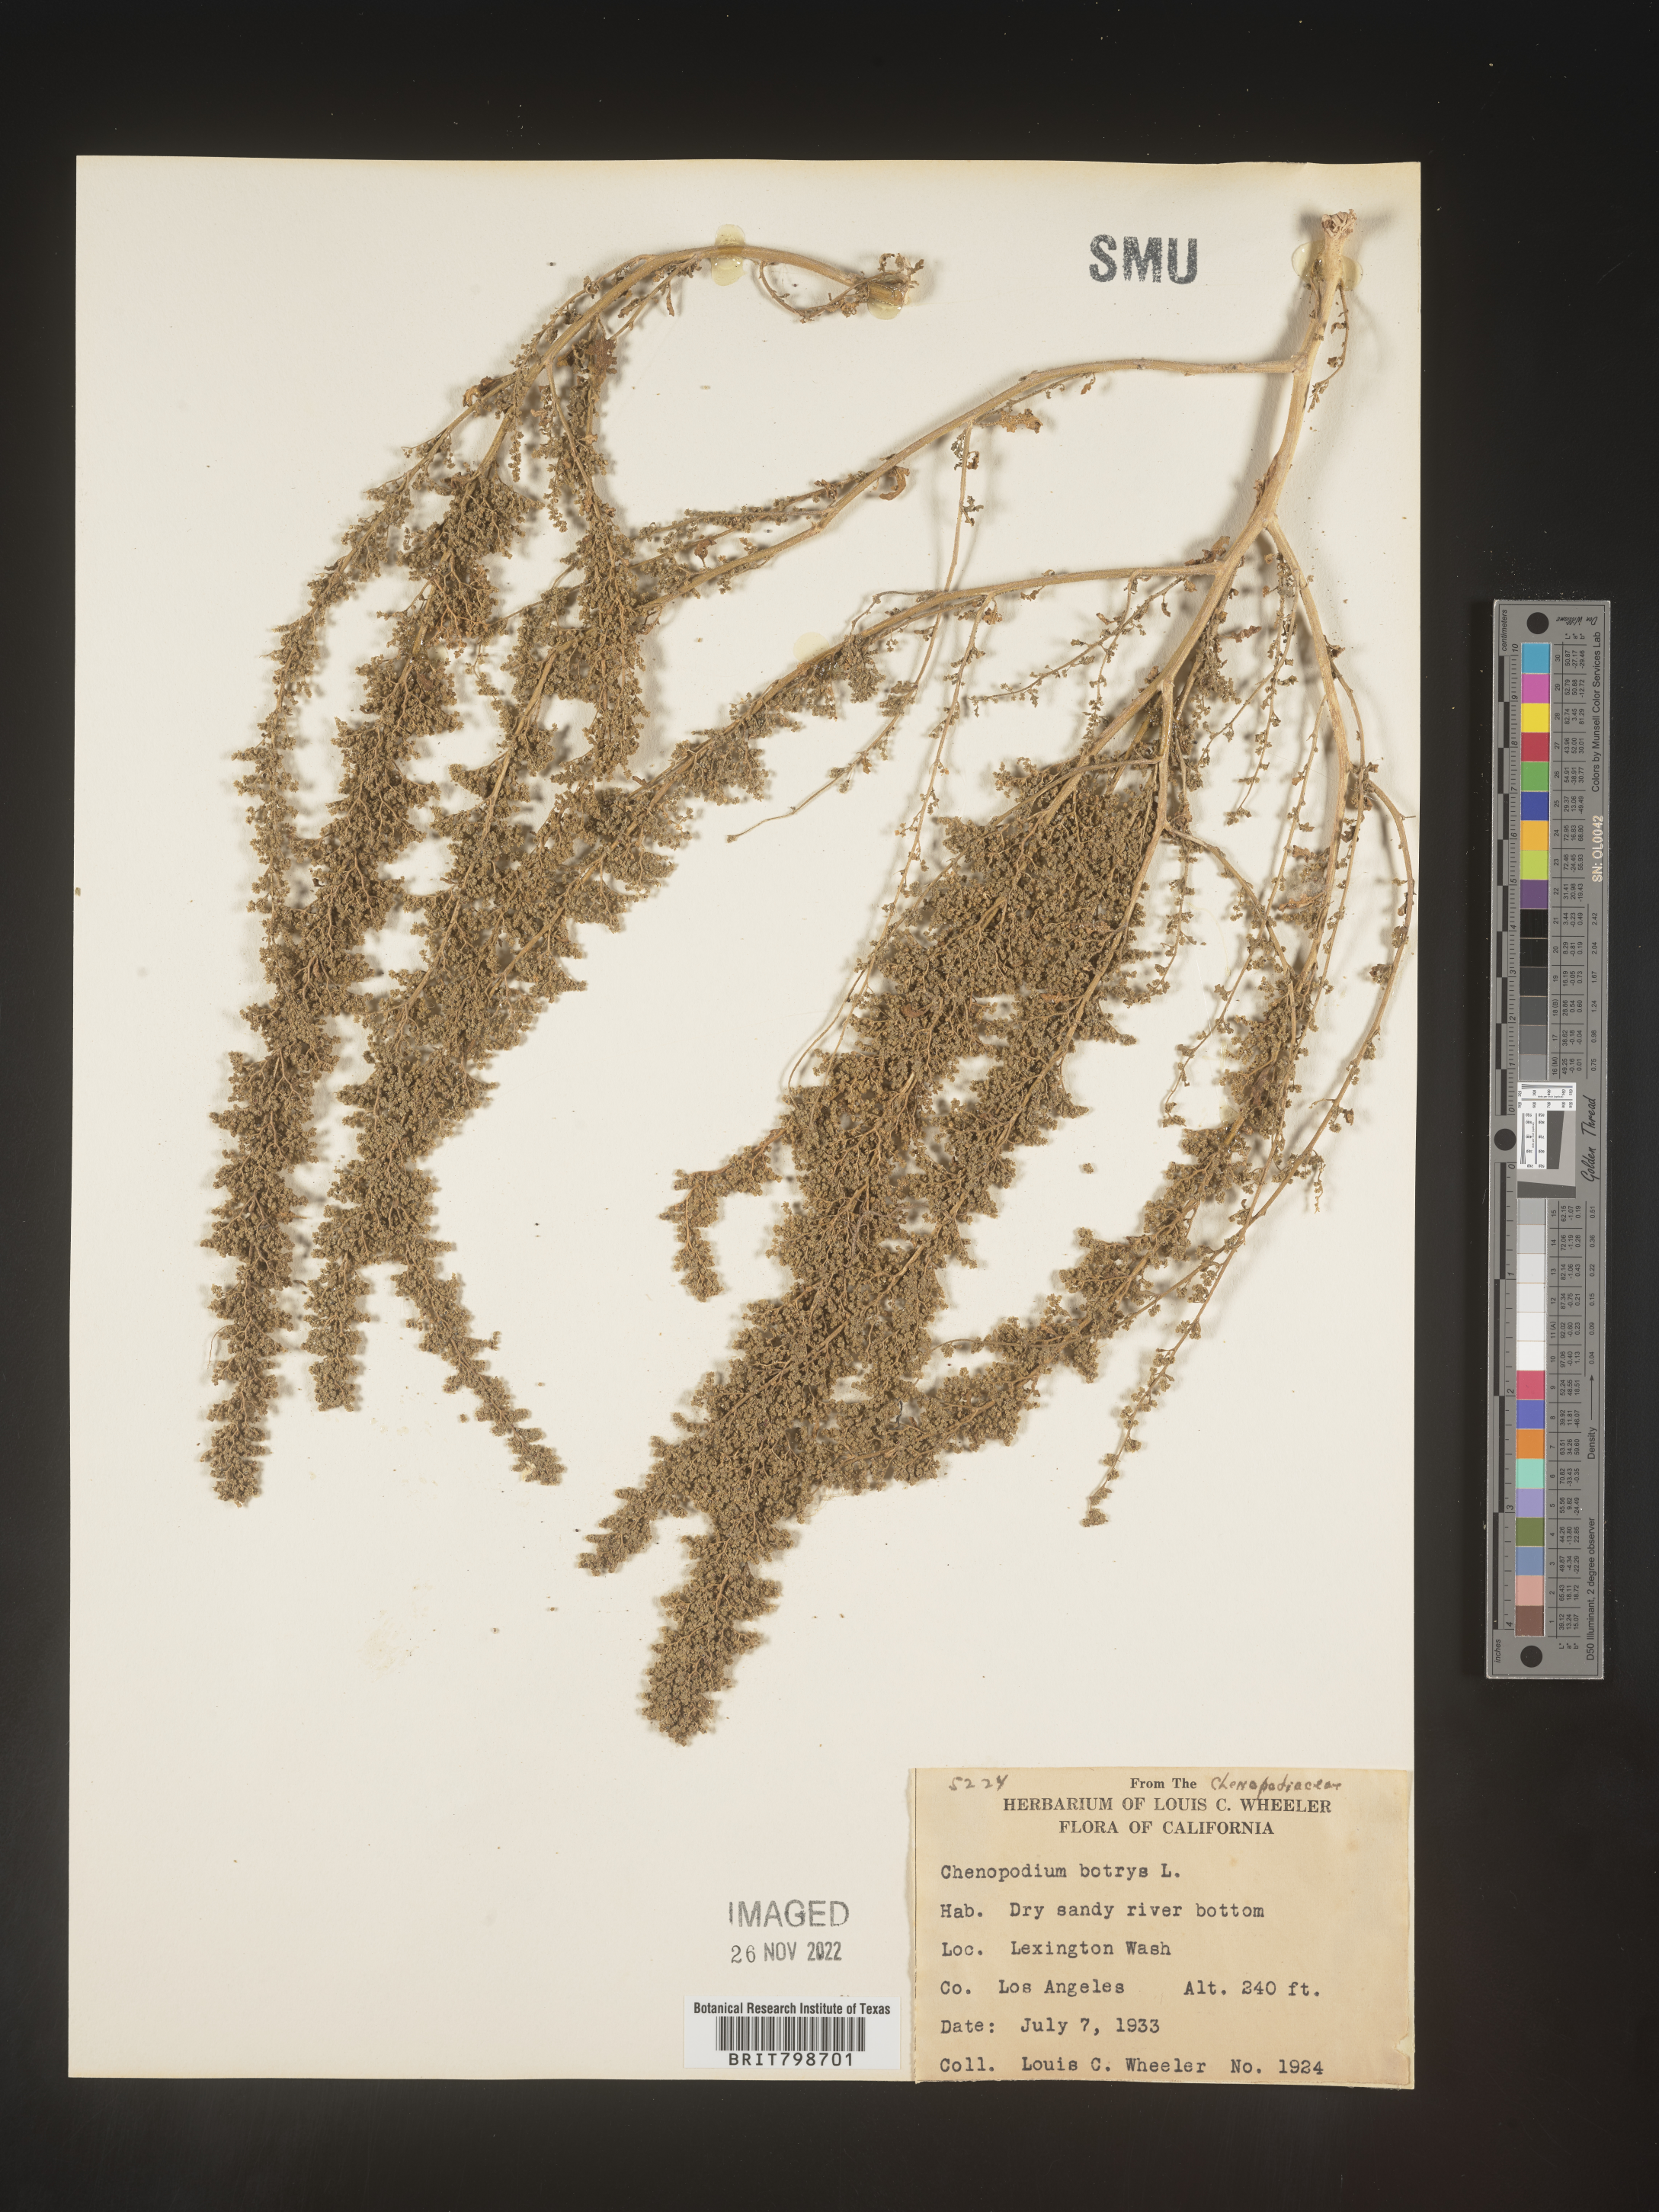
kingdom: Plantae
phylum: Tracheophyta
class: Magnoliopsida
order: Caryophyllales
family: Amaranthaceae
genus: Dysphania
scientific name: Dysphania botrys
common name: Feather-geranium
